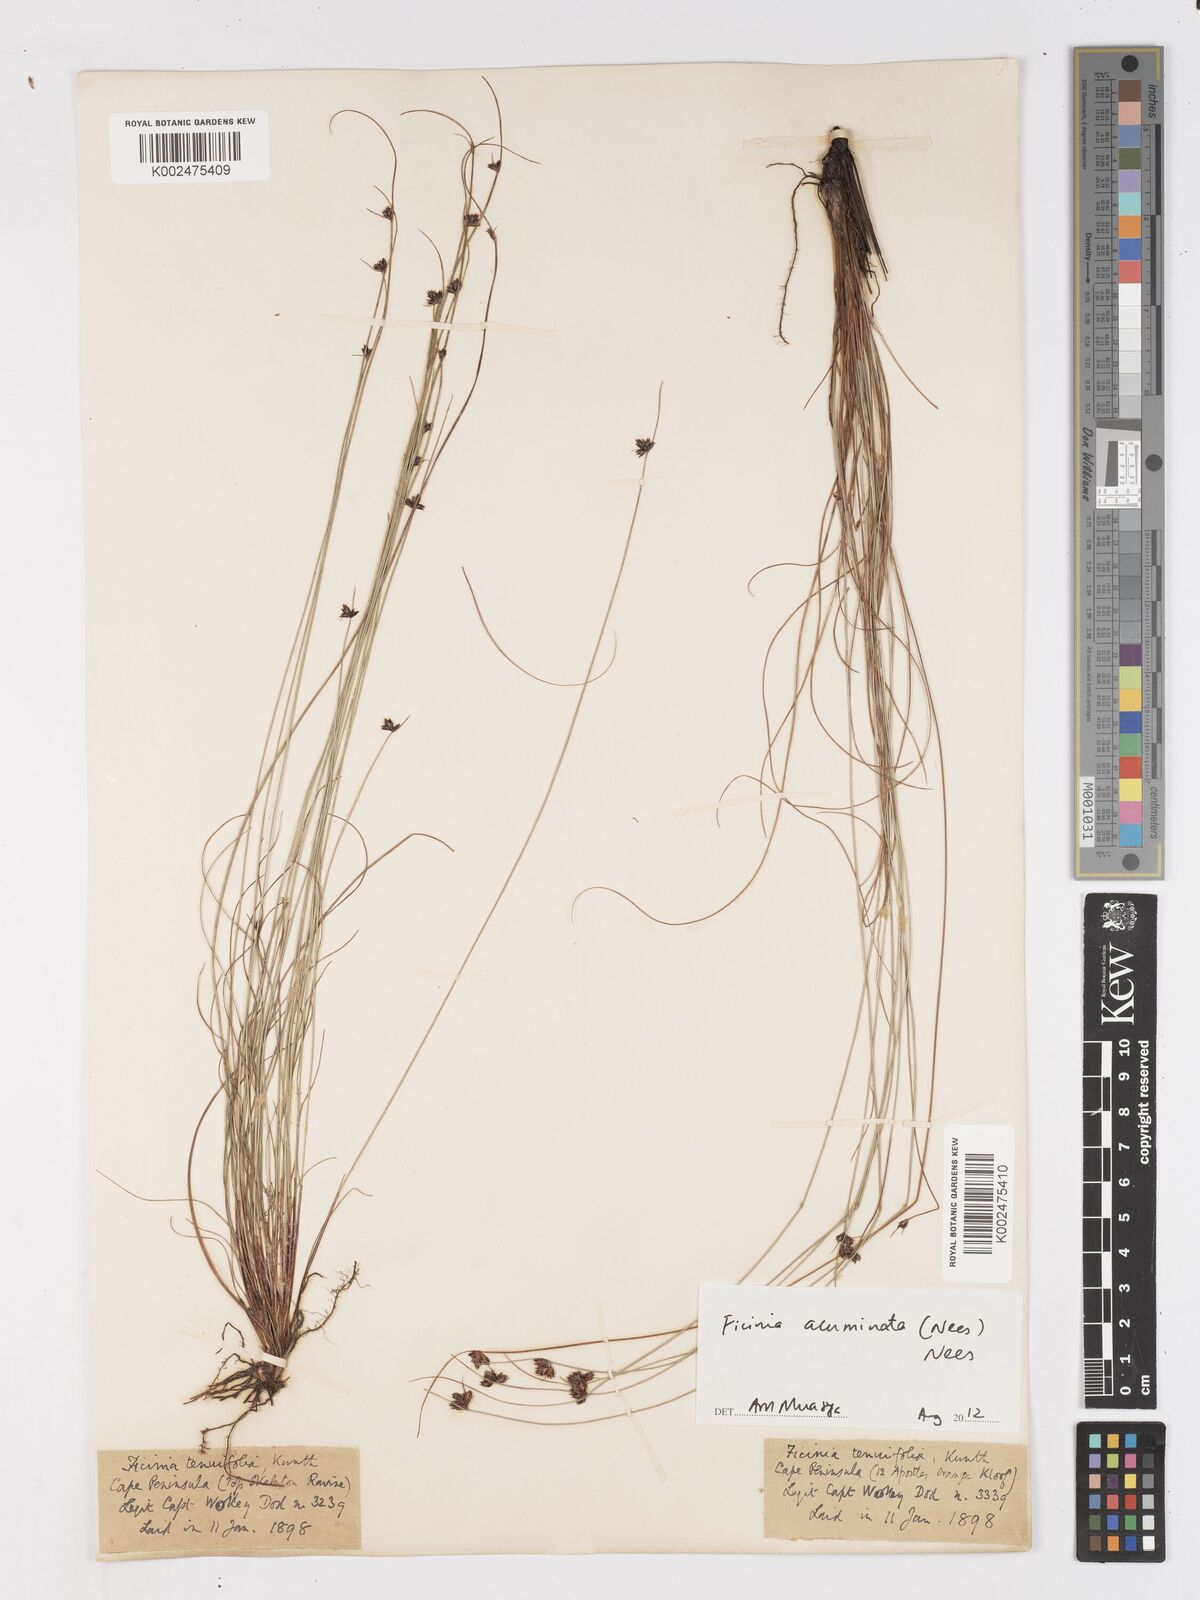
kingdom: Plantae
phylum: Tracheophyta
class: Liliopsida
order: Poales
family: Cyperaceae
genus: Ficinia
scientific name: Ficinia acuminata
